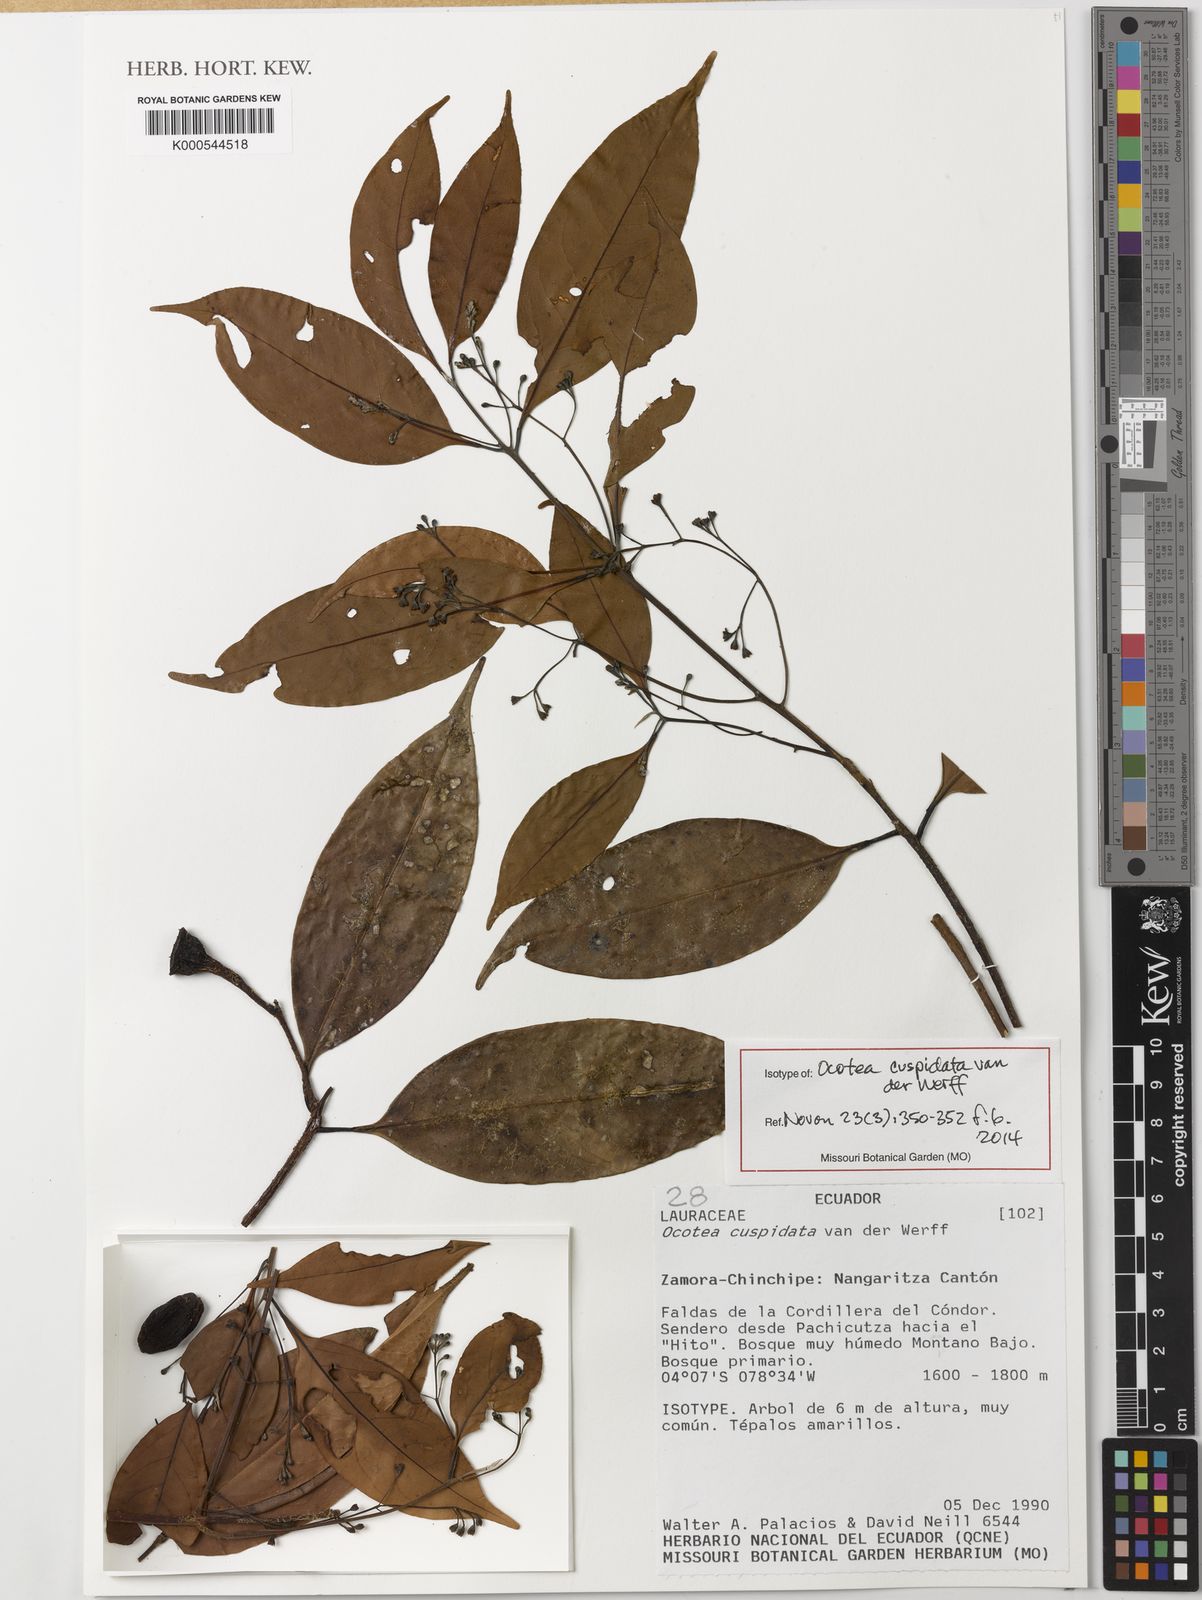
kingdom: Plantae
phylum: Tracheophyta
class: Magnoliopsida
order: Laurales
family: Lauraceae
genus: Ocotea
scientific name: Ocotea cuspidata
